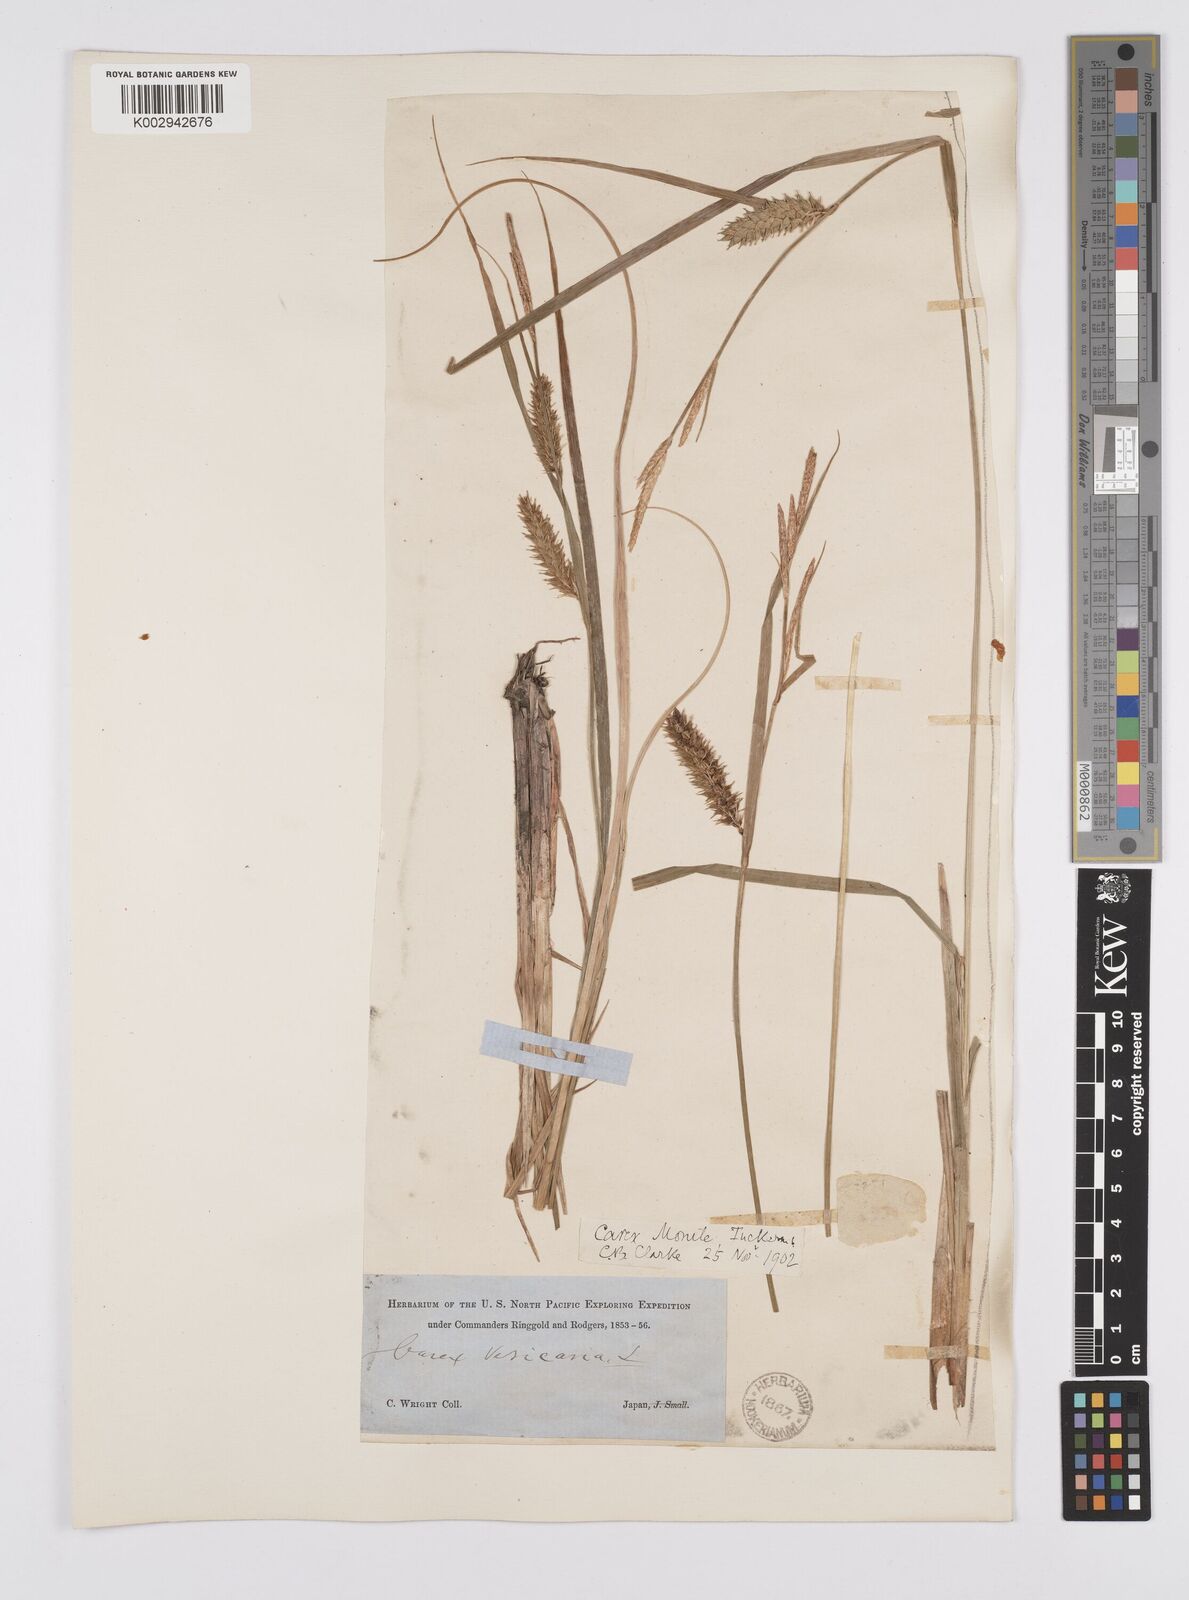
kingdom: Plantae
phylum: Tracheophyta
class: Liliopsida
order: Poales
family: Cyperaceae
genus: Carex
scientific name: Carex vesicaria
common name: Bladder-sedge
